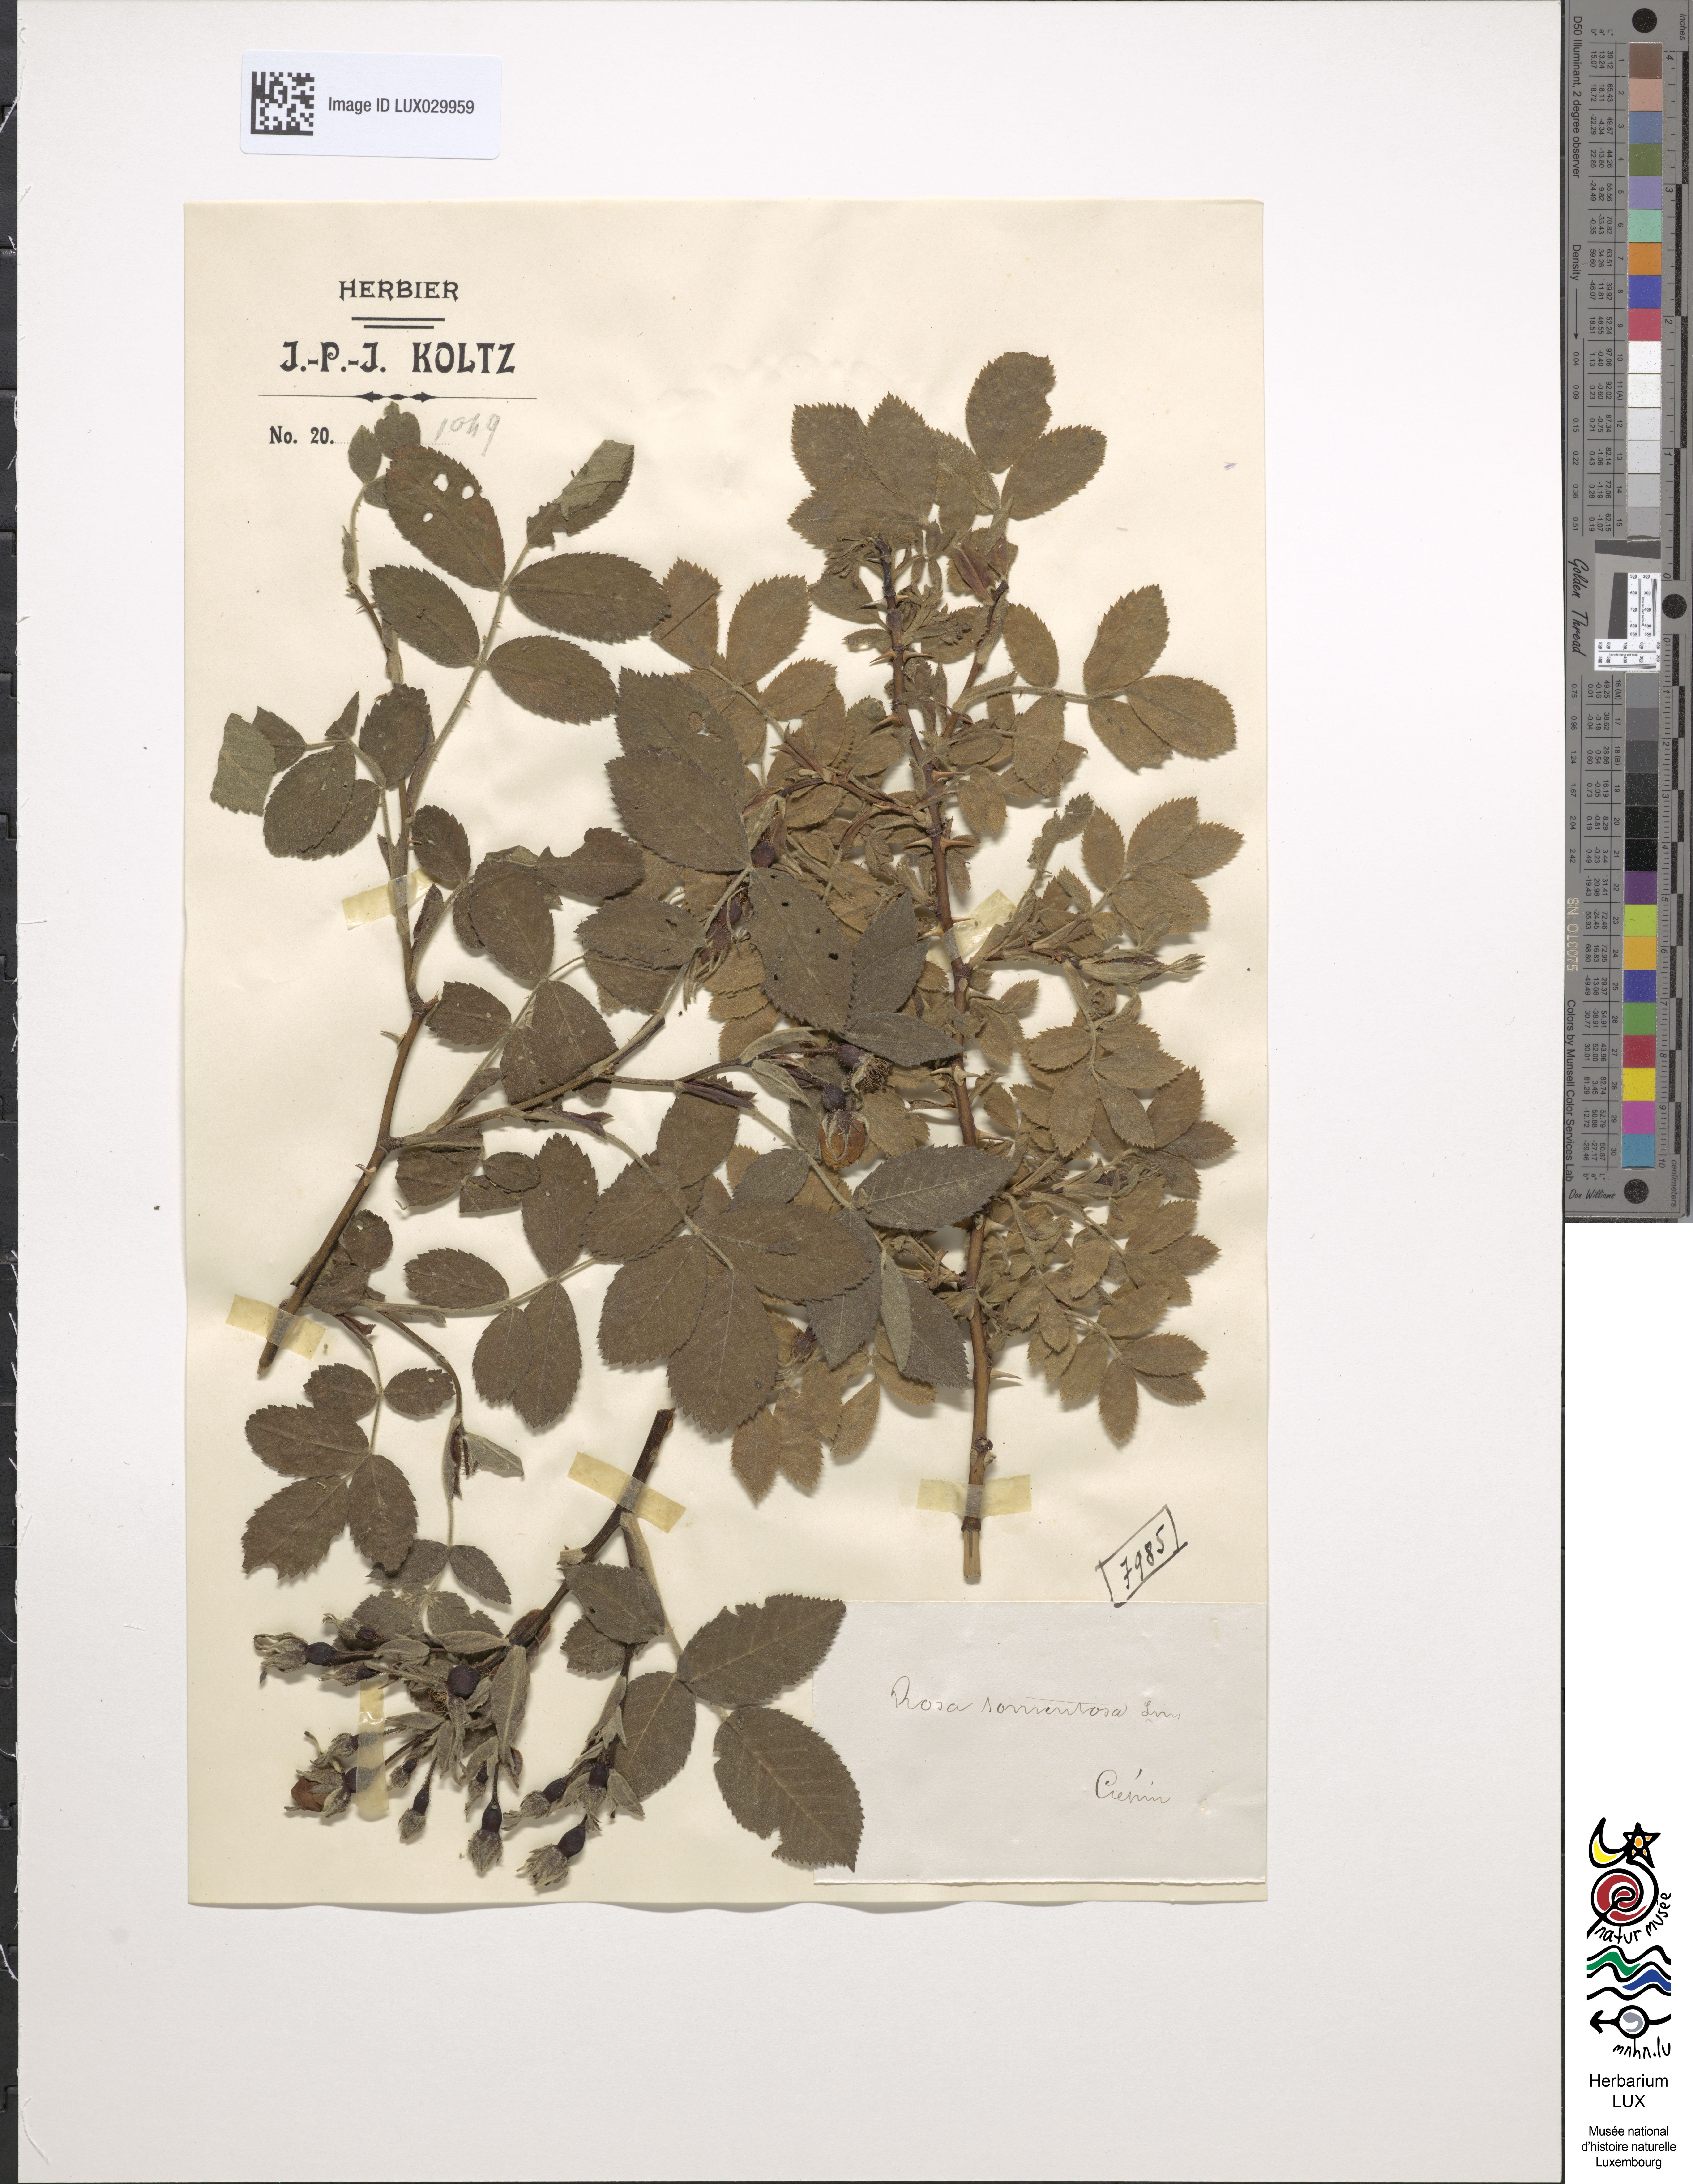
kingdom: Plantae
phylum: Tracheophyta
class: Magnoliopsida
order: Rosales
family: Rosaceae
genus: Rosa
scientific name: Rosa tomentosa
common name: Downy rose
